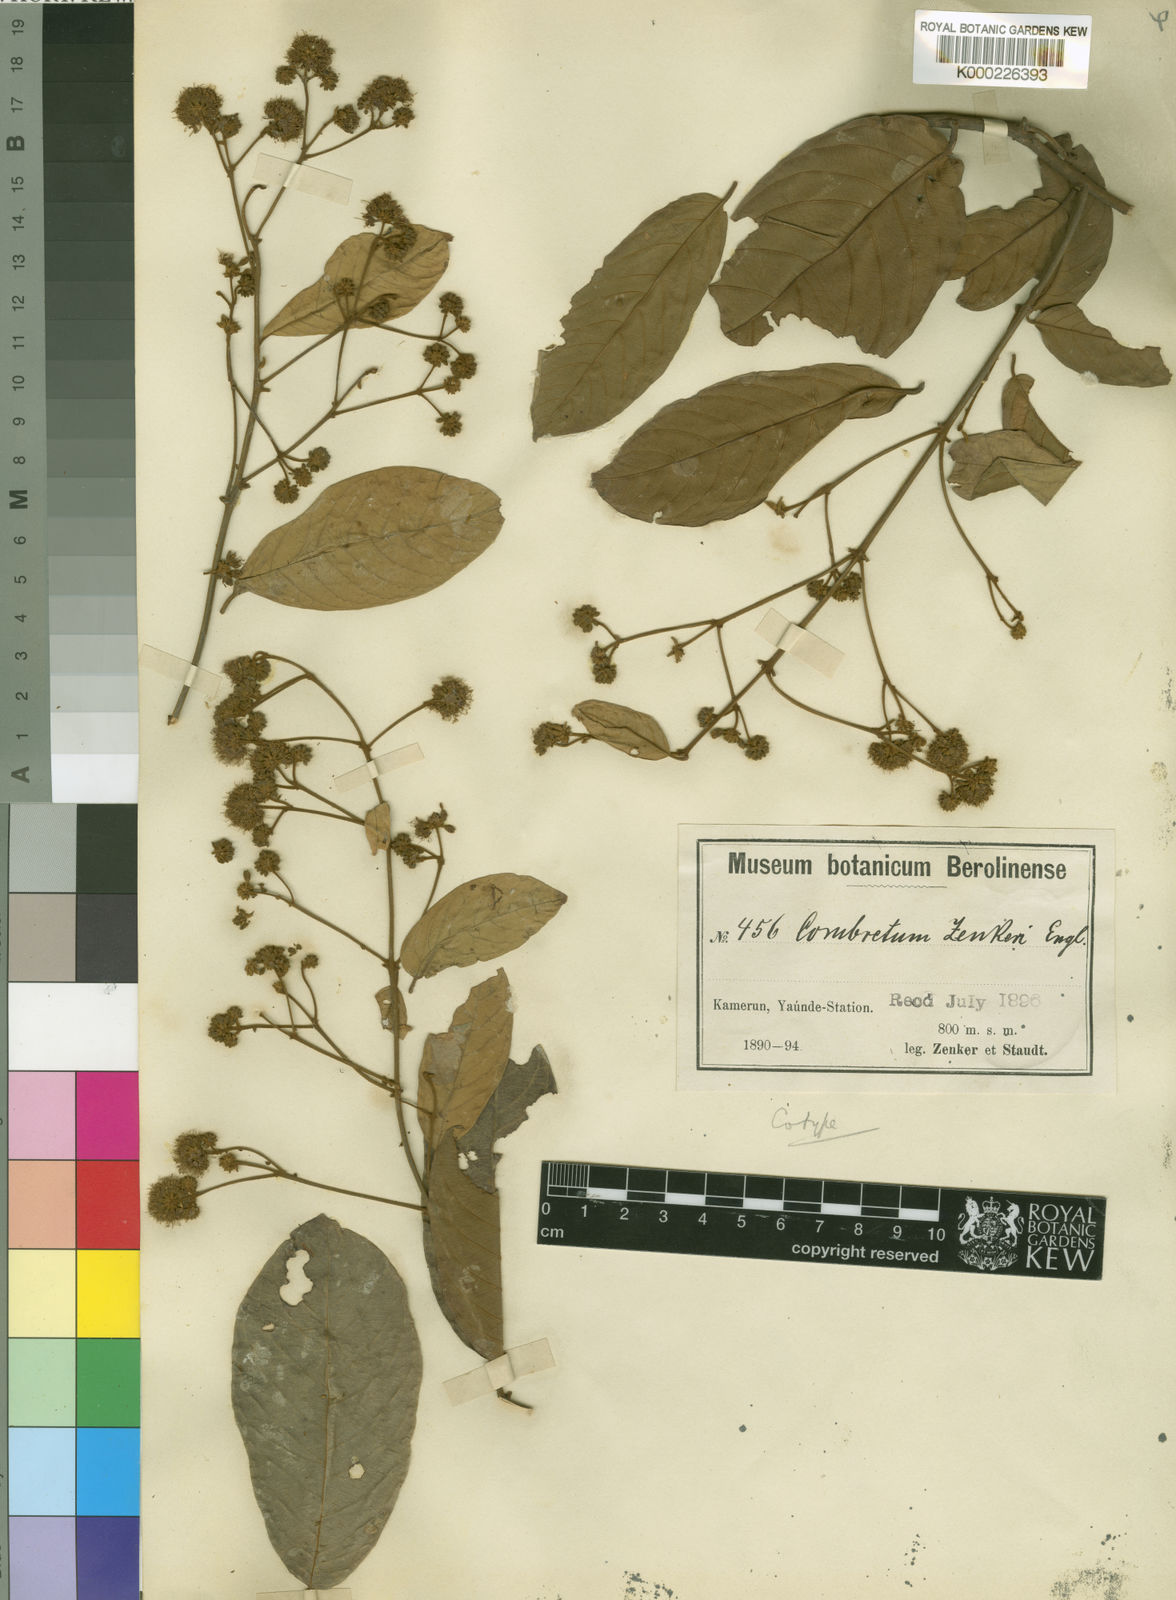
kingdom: Plantae
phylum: Tracheophyta
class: Magnoliopsida
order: Myrtales
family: Combretaceae
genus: Combretum
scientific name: Combretum zenkeri
